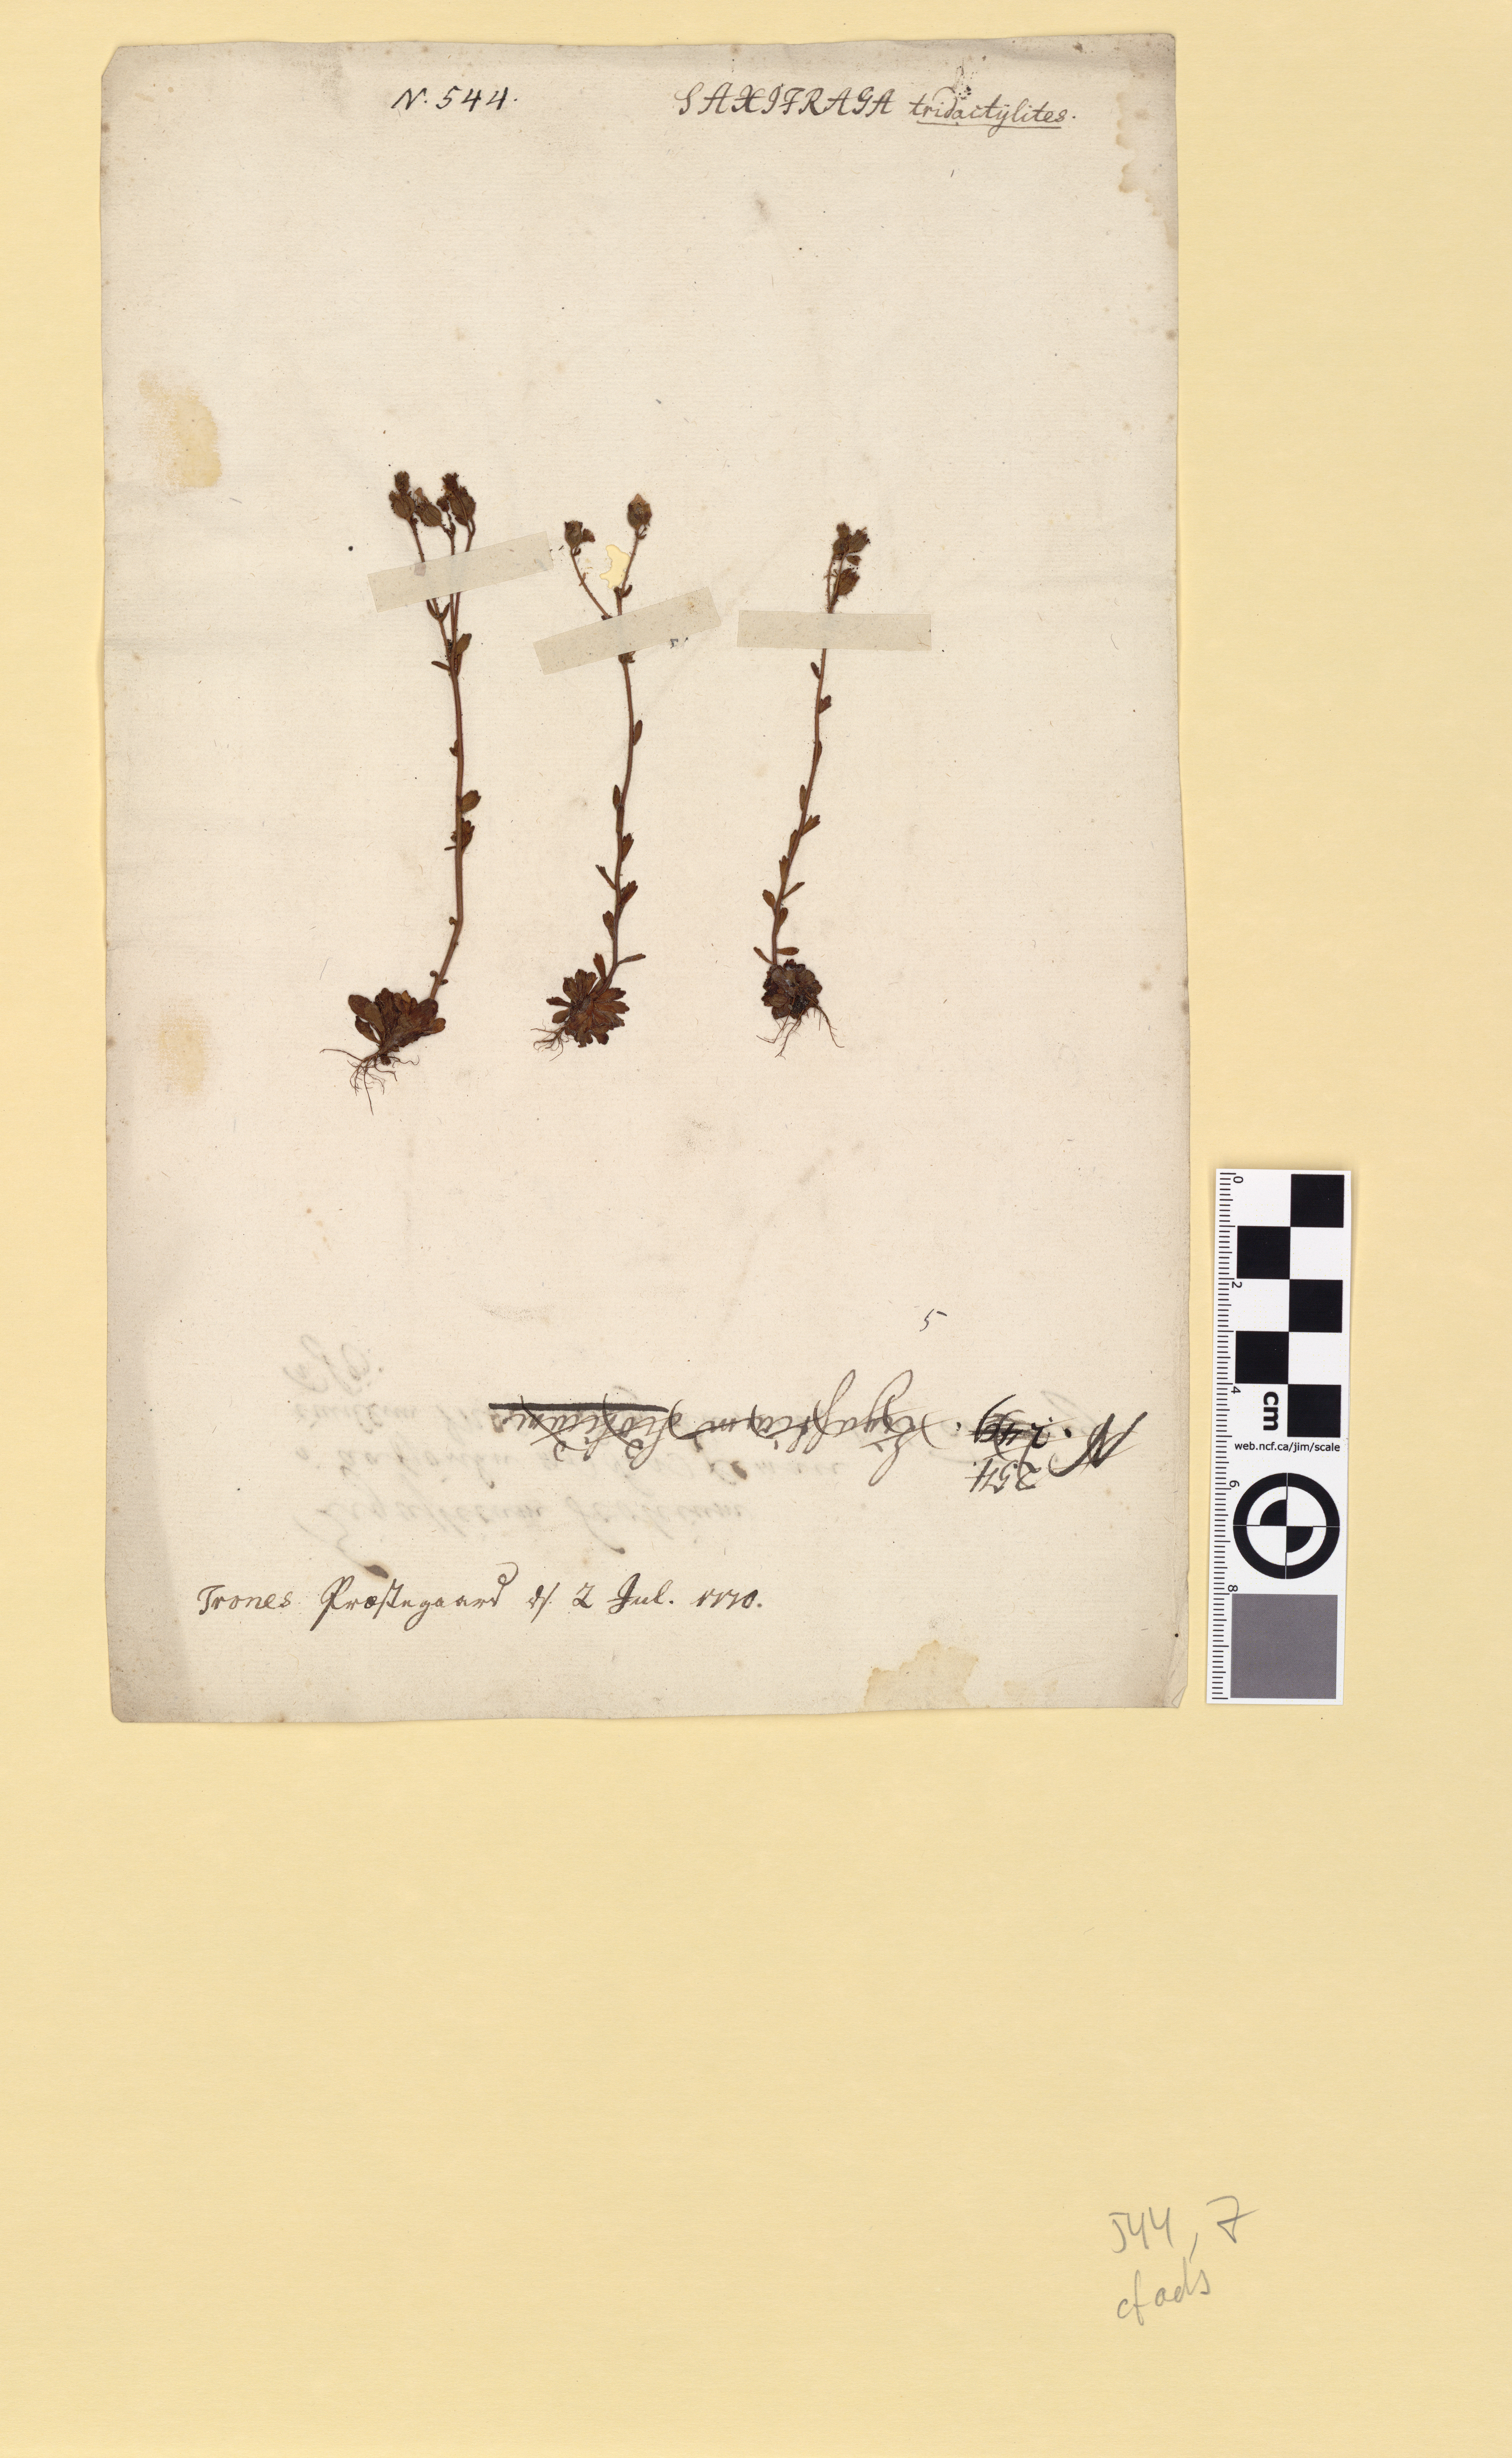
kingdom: Plantae
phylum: Tracheophyta
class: Magnoliopsida
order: Saxifragales
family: Saxifragaceae
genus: Saxifraga
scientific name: Saxifraga adscendens
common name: Ascending saxifrage
